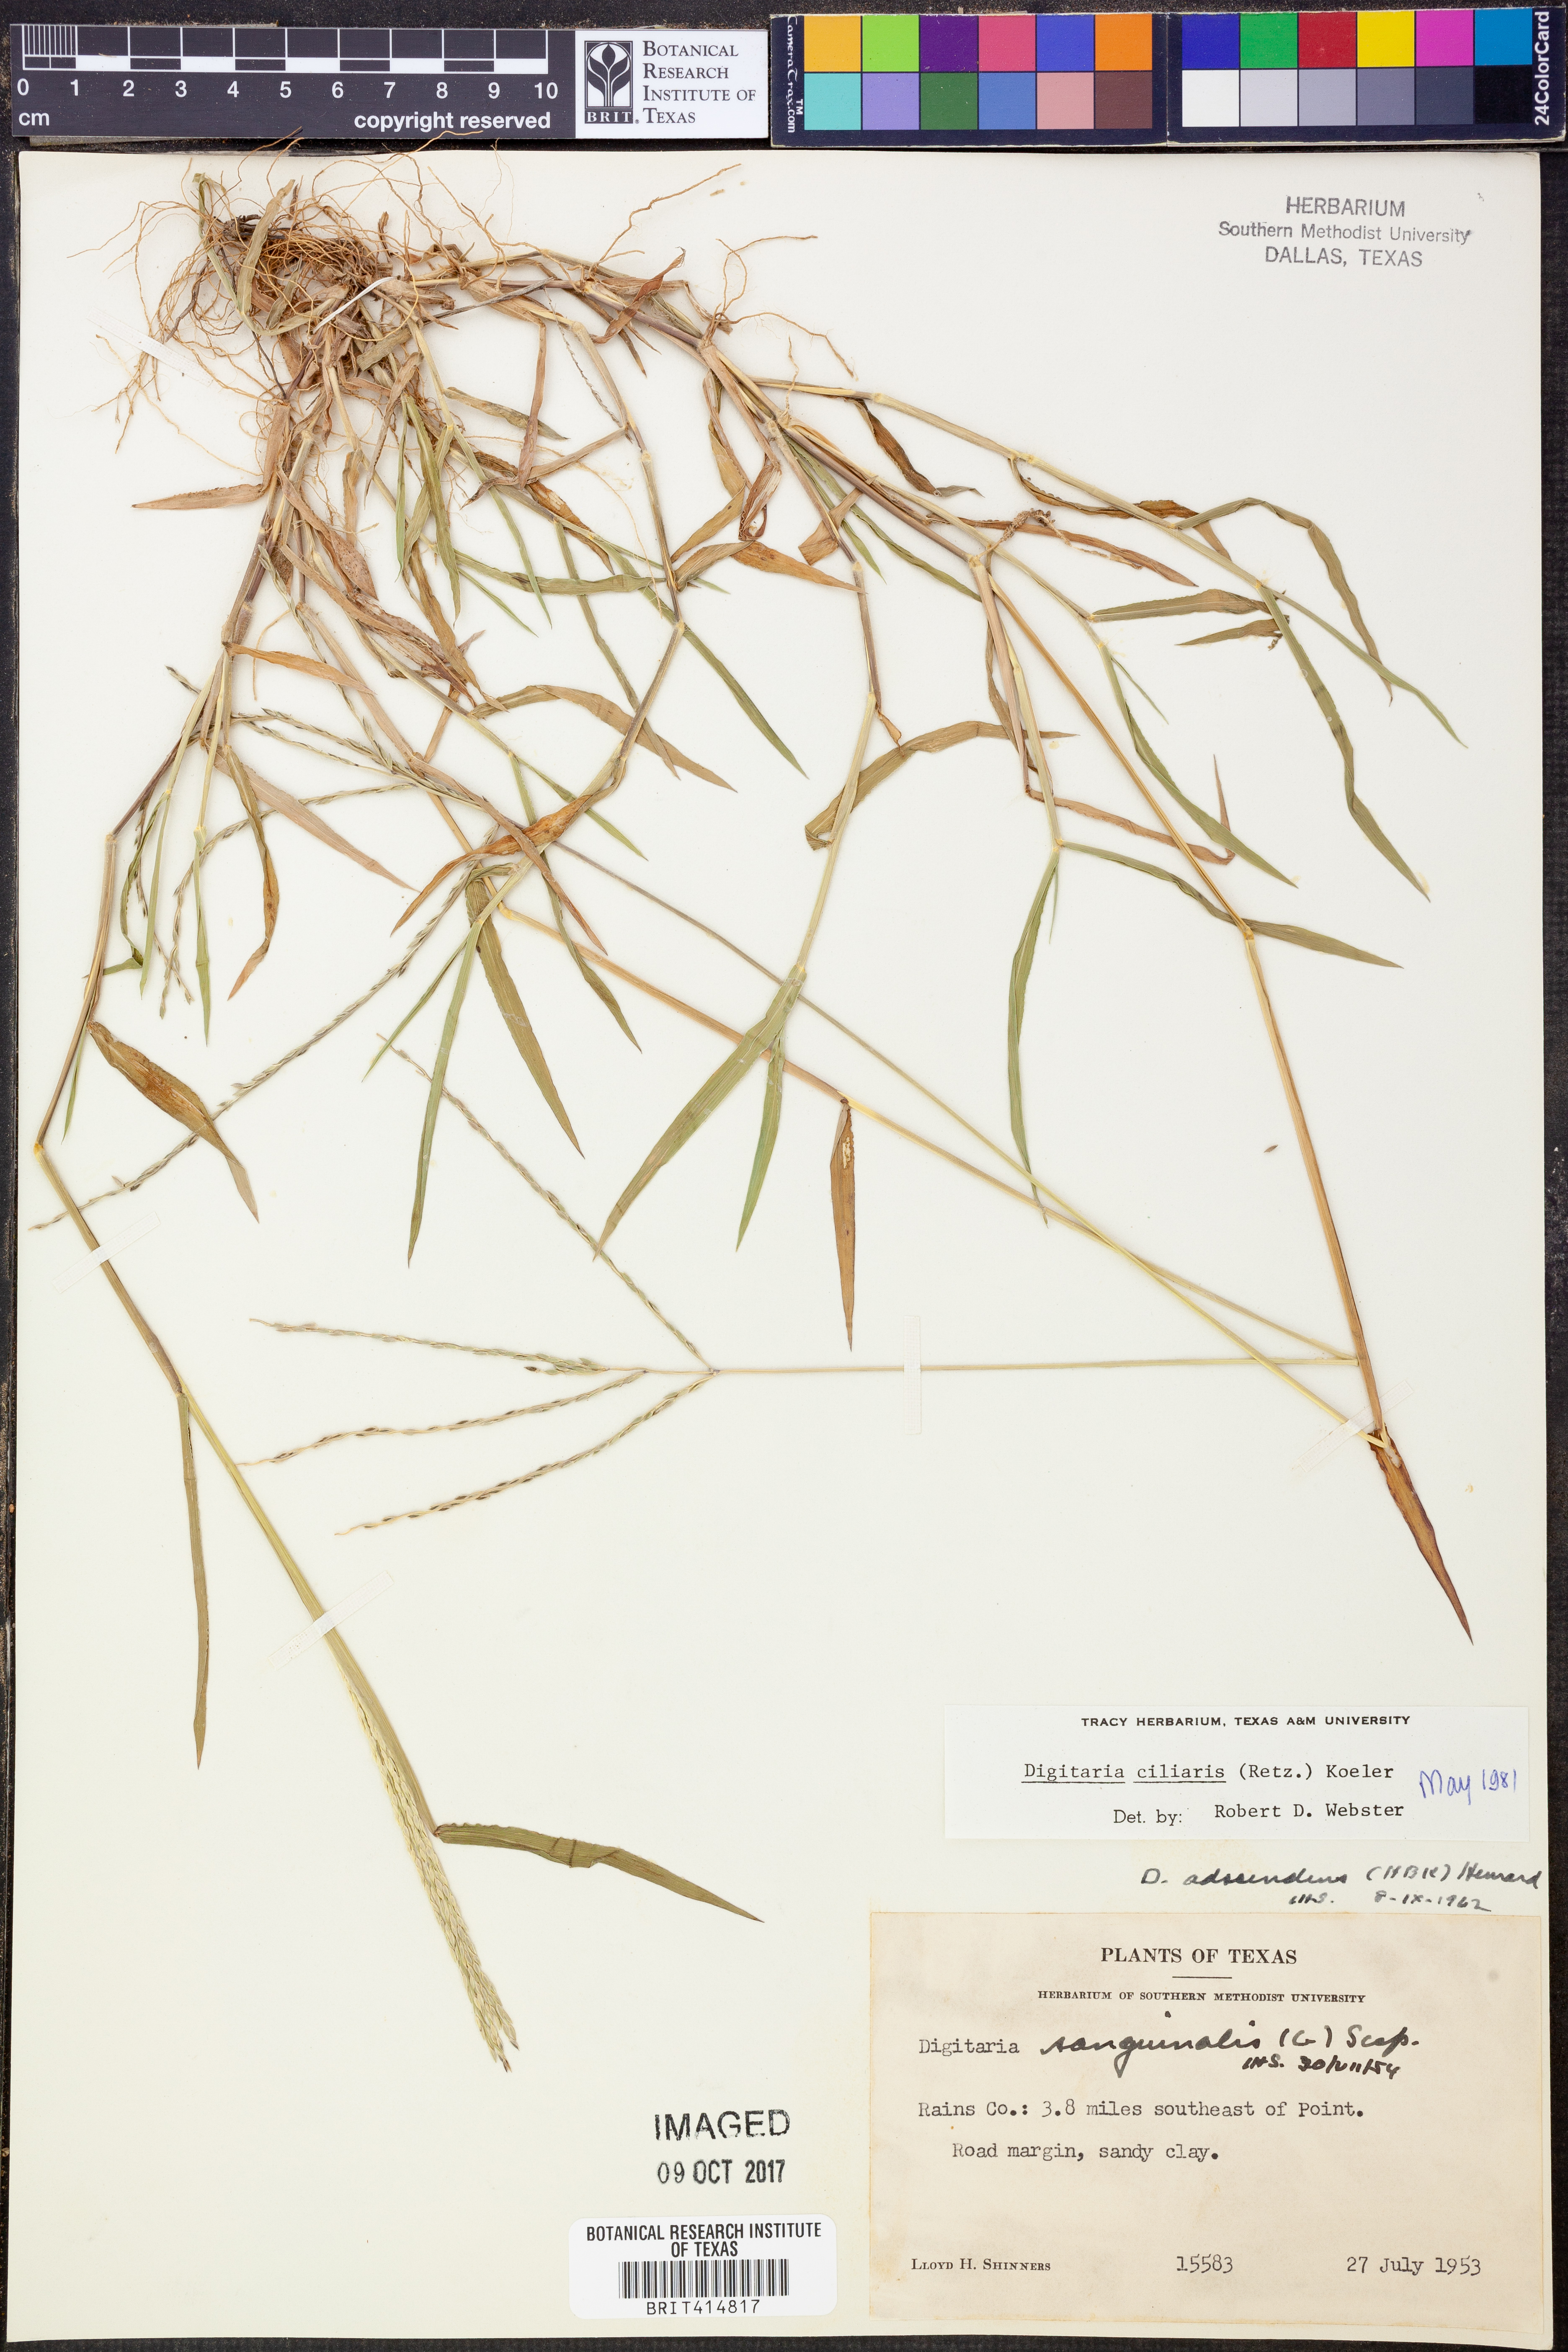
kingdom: Plantae
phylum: Tracheophyta
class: Liliopsida
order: Poales
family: Poaceae
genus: Digitaria
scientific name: Digitaria ciliaris
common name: Tropical finger-grass
